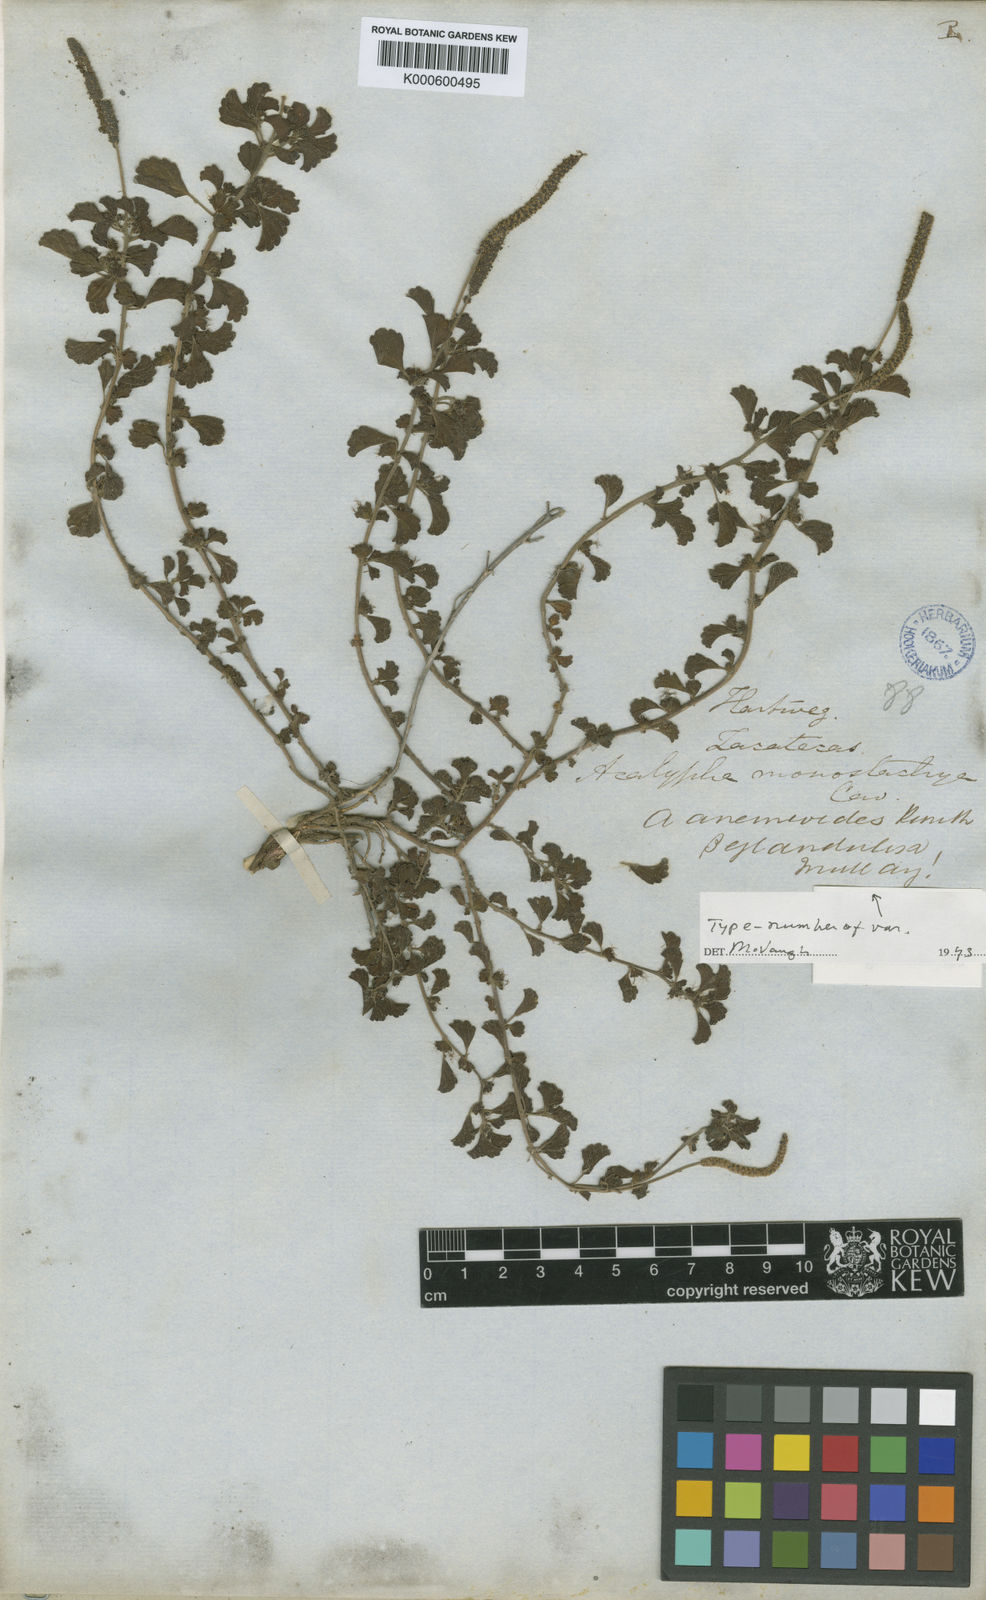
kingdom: Plantae
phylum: Tracheophyta
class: Magnoliopsida
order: Malpighiales
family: Euphorbiaceae
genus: Acalypha
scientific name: Acalypha anemioides
